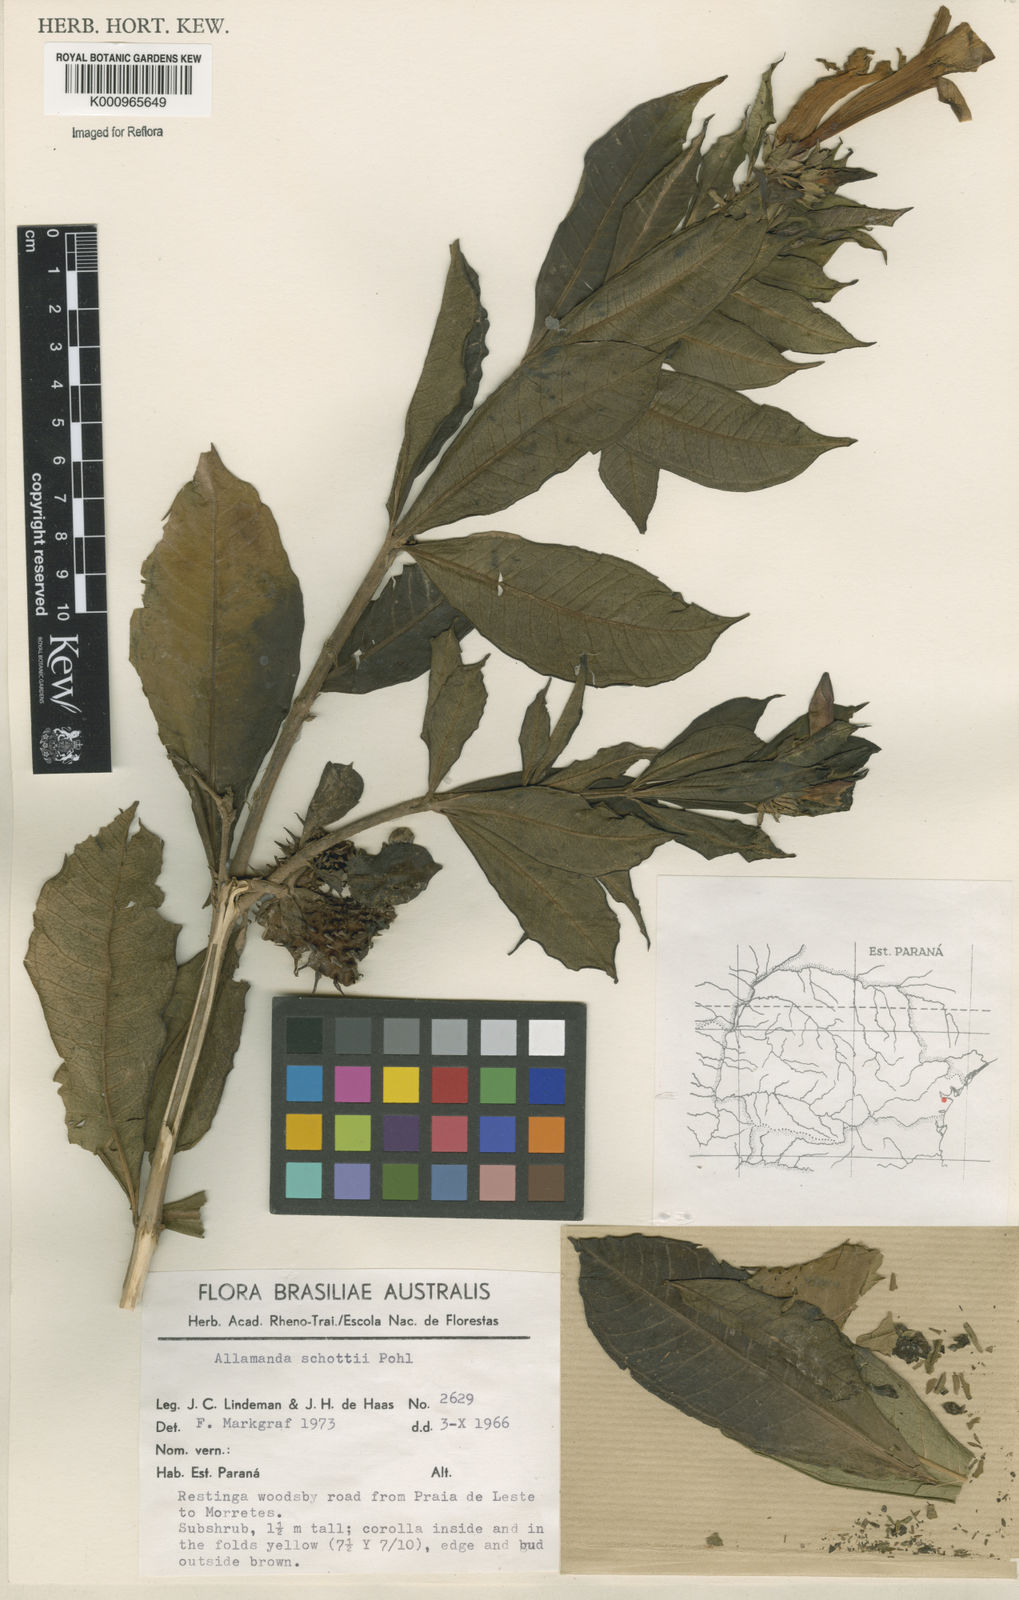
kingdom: Plantae
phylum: Tracheophyta
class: Magnoliopsida
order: Gentianales
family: Apocynaceae
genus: Allamanda
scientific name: Allamanda schottii
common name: Bush allamanda
